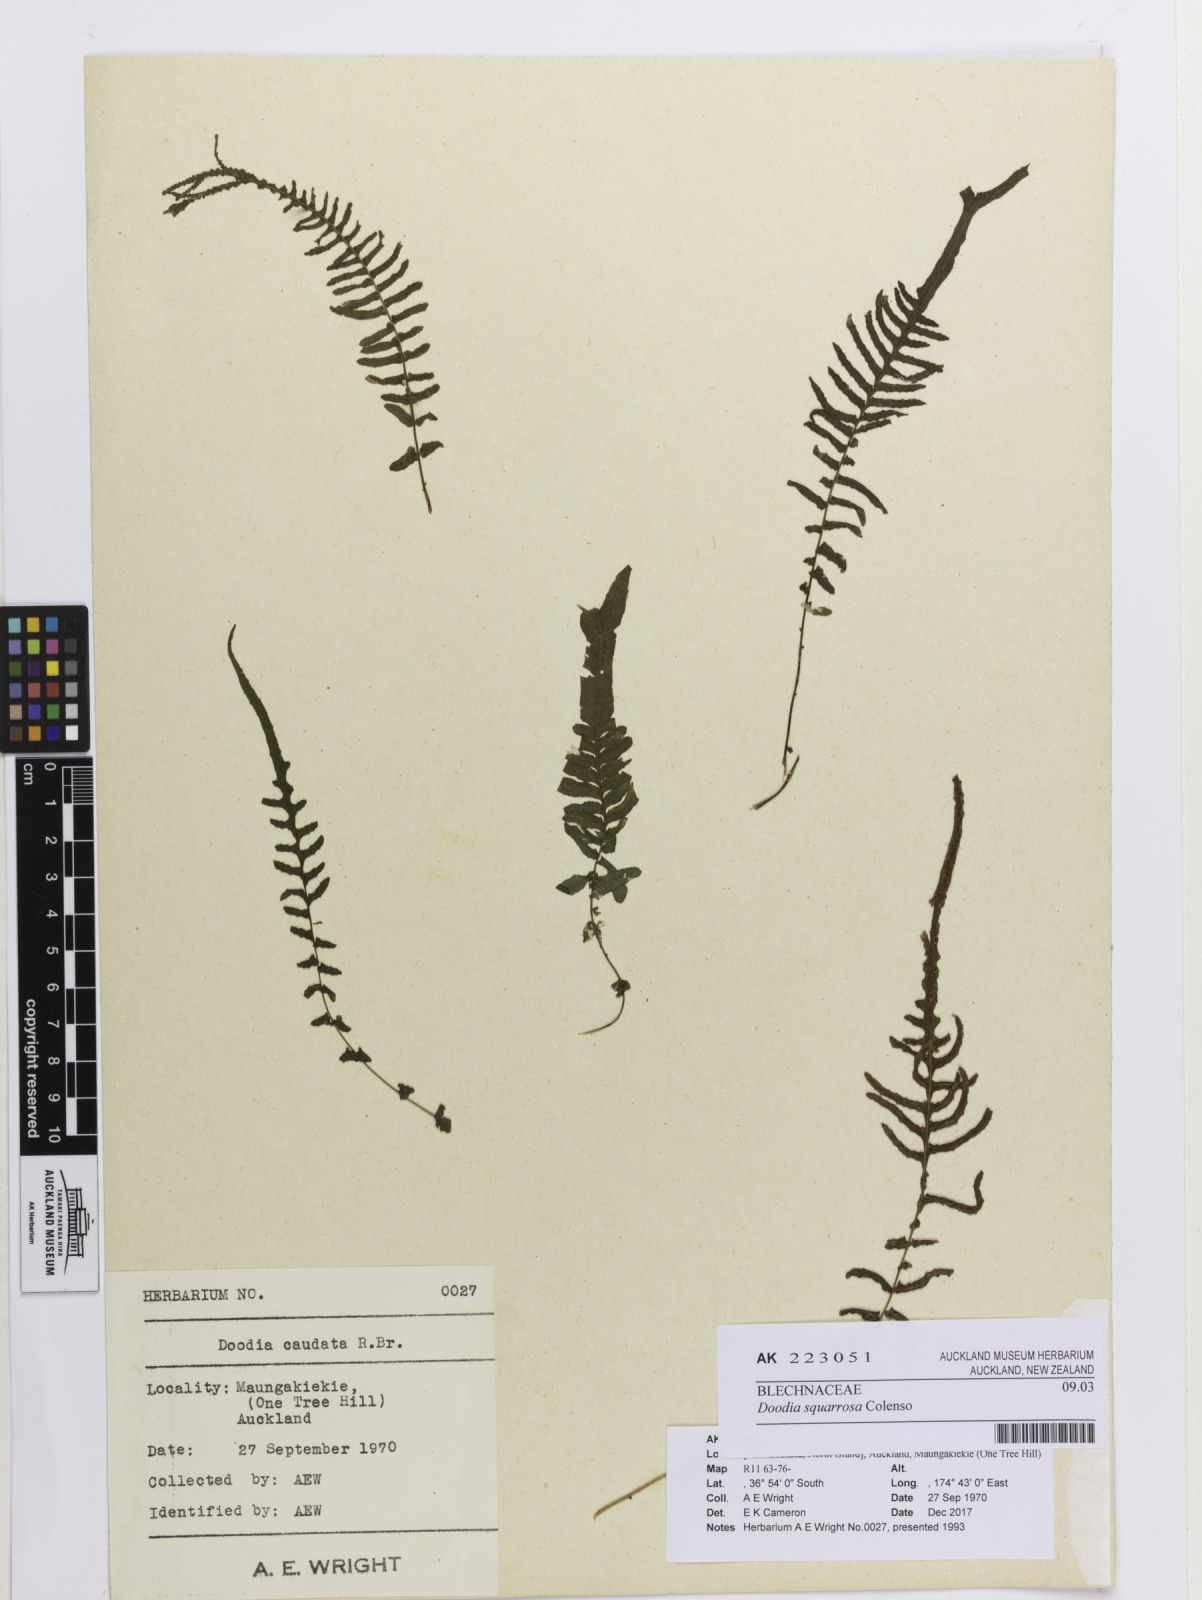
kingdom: Plantae
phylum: Tracheophyta
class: Polypodiopsida
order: Polypodiales
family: Blechnaceae
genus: Doodia
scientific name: Doodia squarrosa
